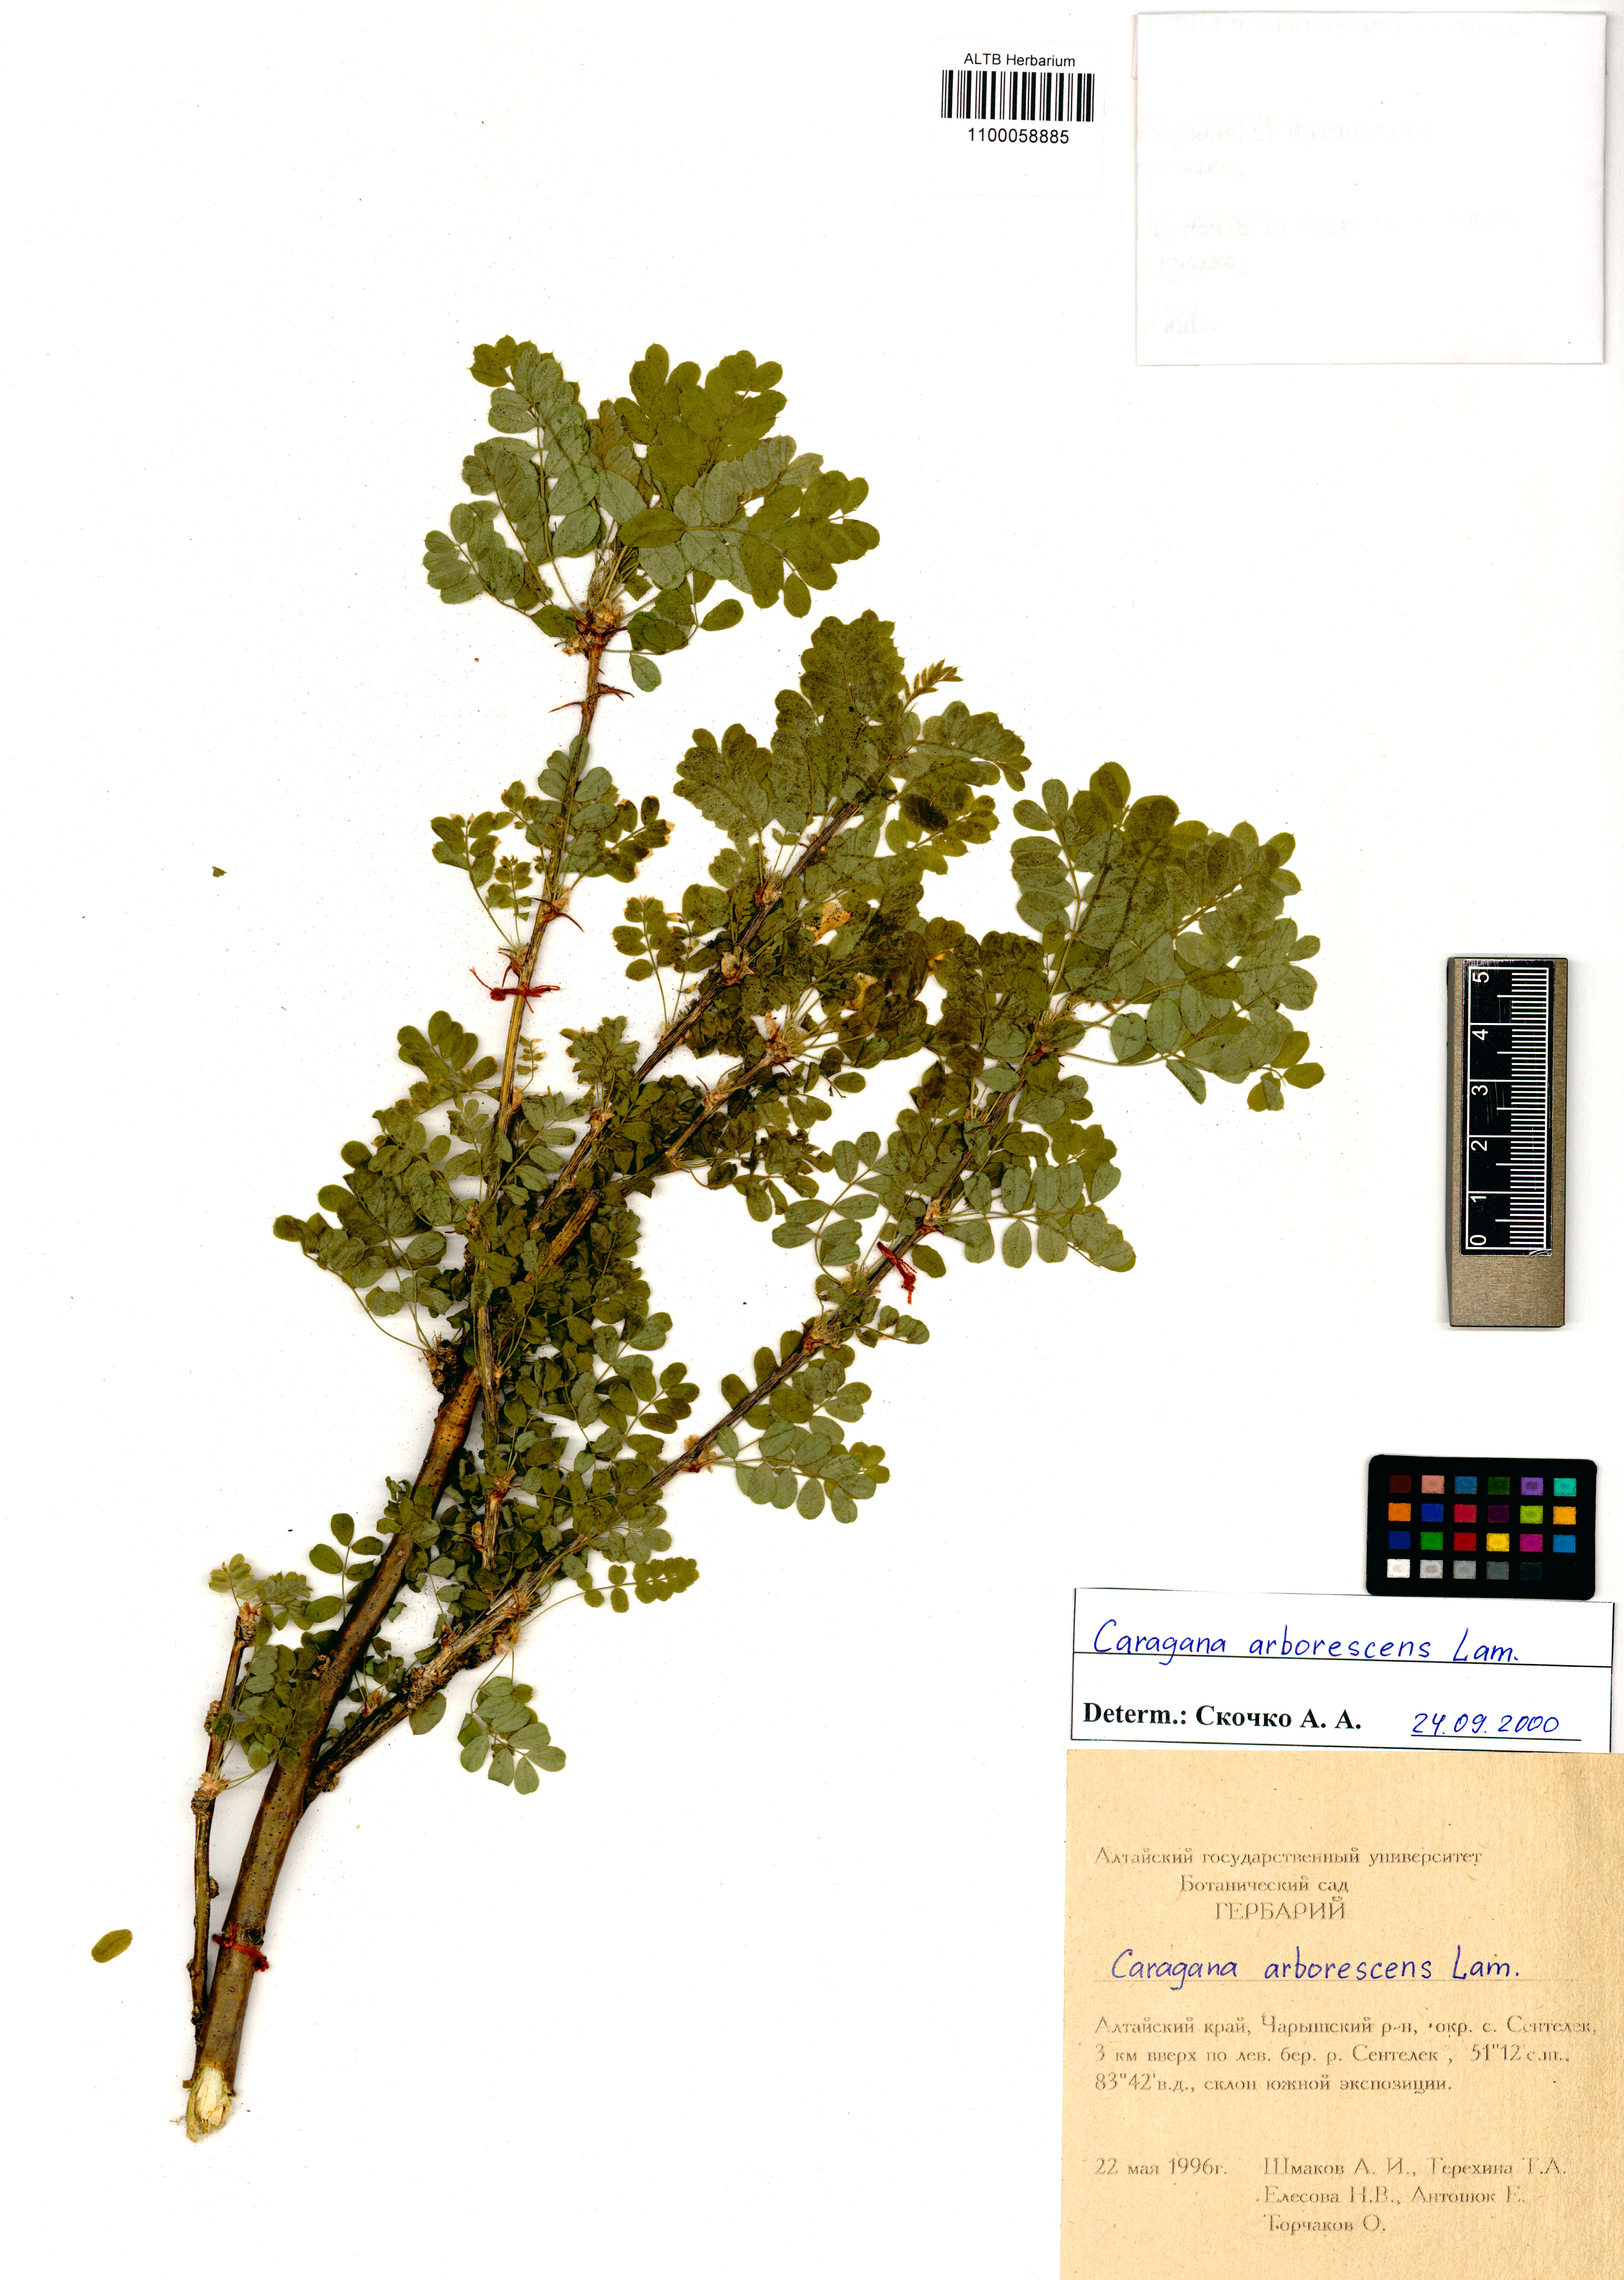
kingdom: Plantae
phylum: Tracheophyta
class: Magnoliopsida
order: Fabales
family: Fabaceae
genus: Caragana
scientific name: Caragana arborescens
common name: Siberian peashrub
